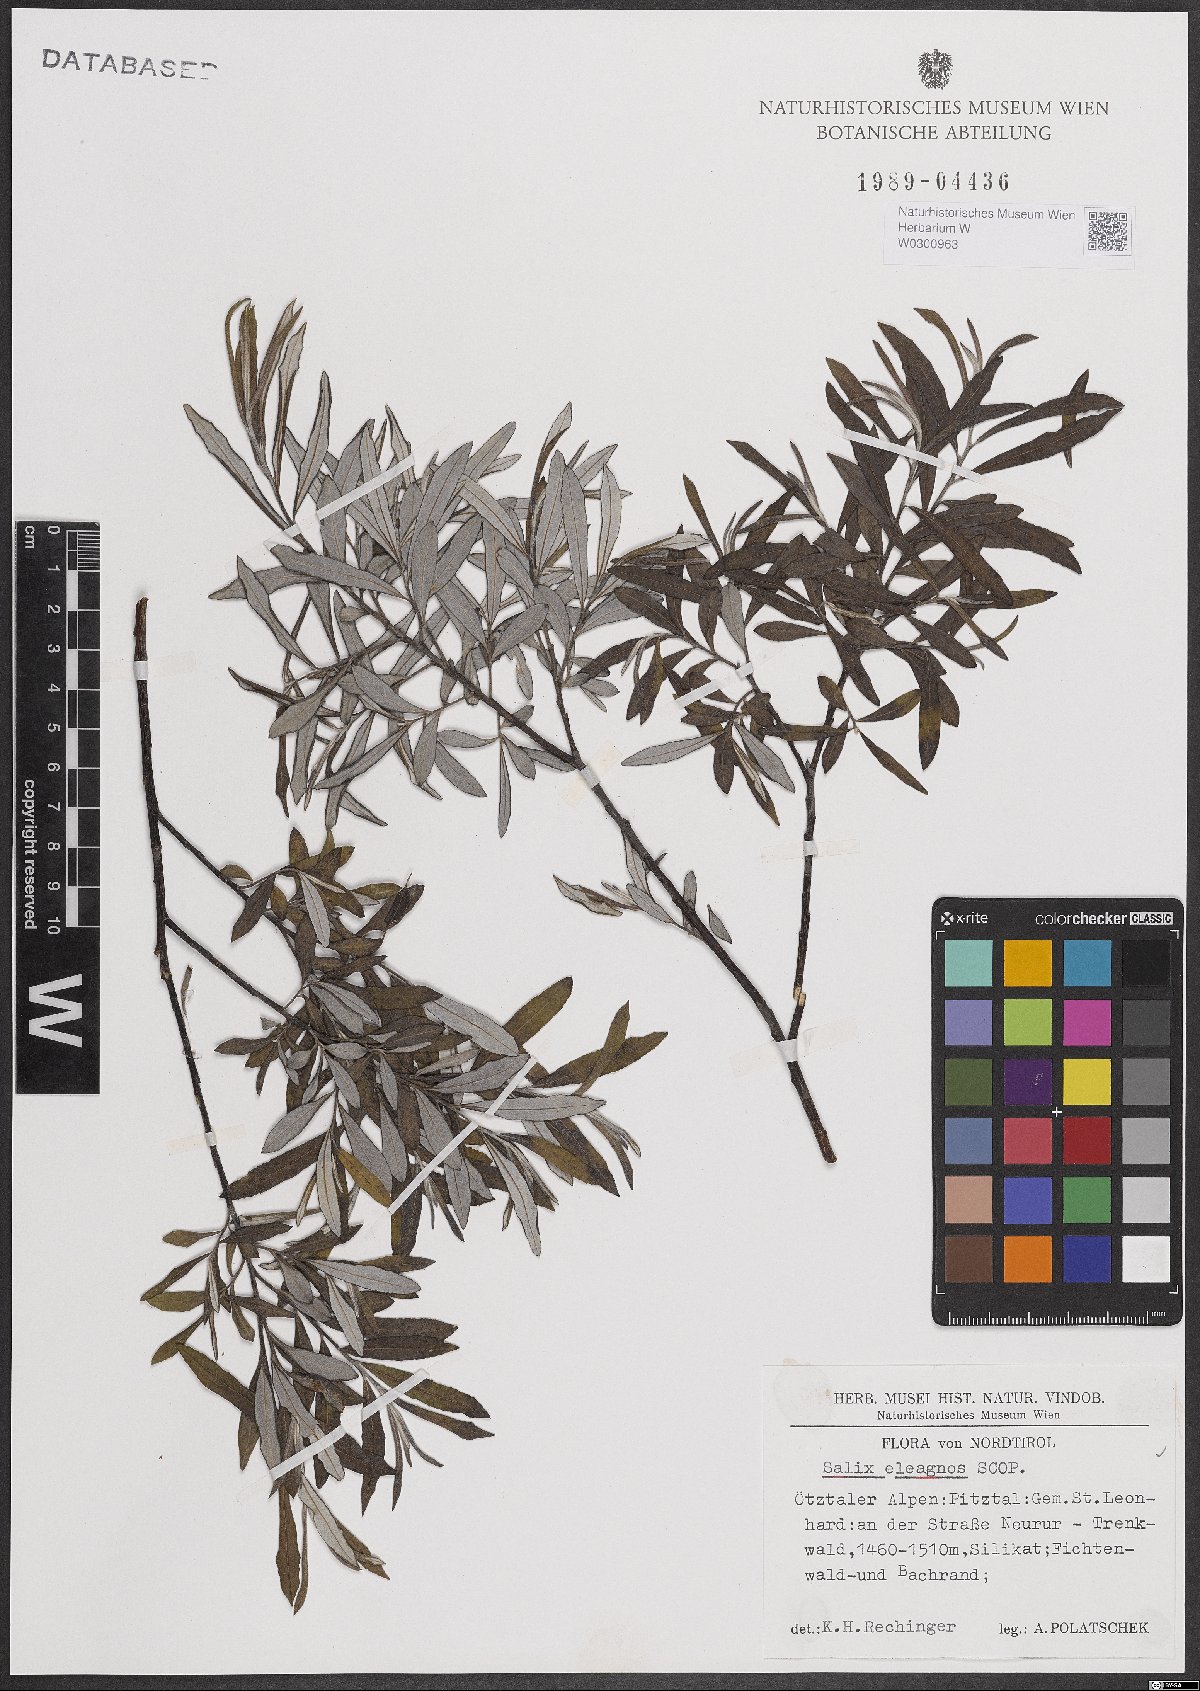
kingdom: Plantae
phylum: Tracheophyta
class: Magnoliopsida
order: Malpighiales
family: Salicaceae
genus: Salix
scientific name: Salix eleagnos
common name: Elaeagnus willow
